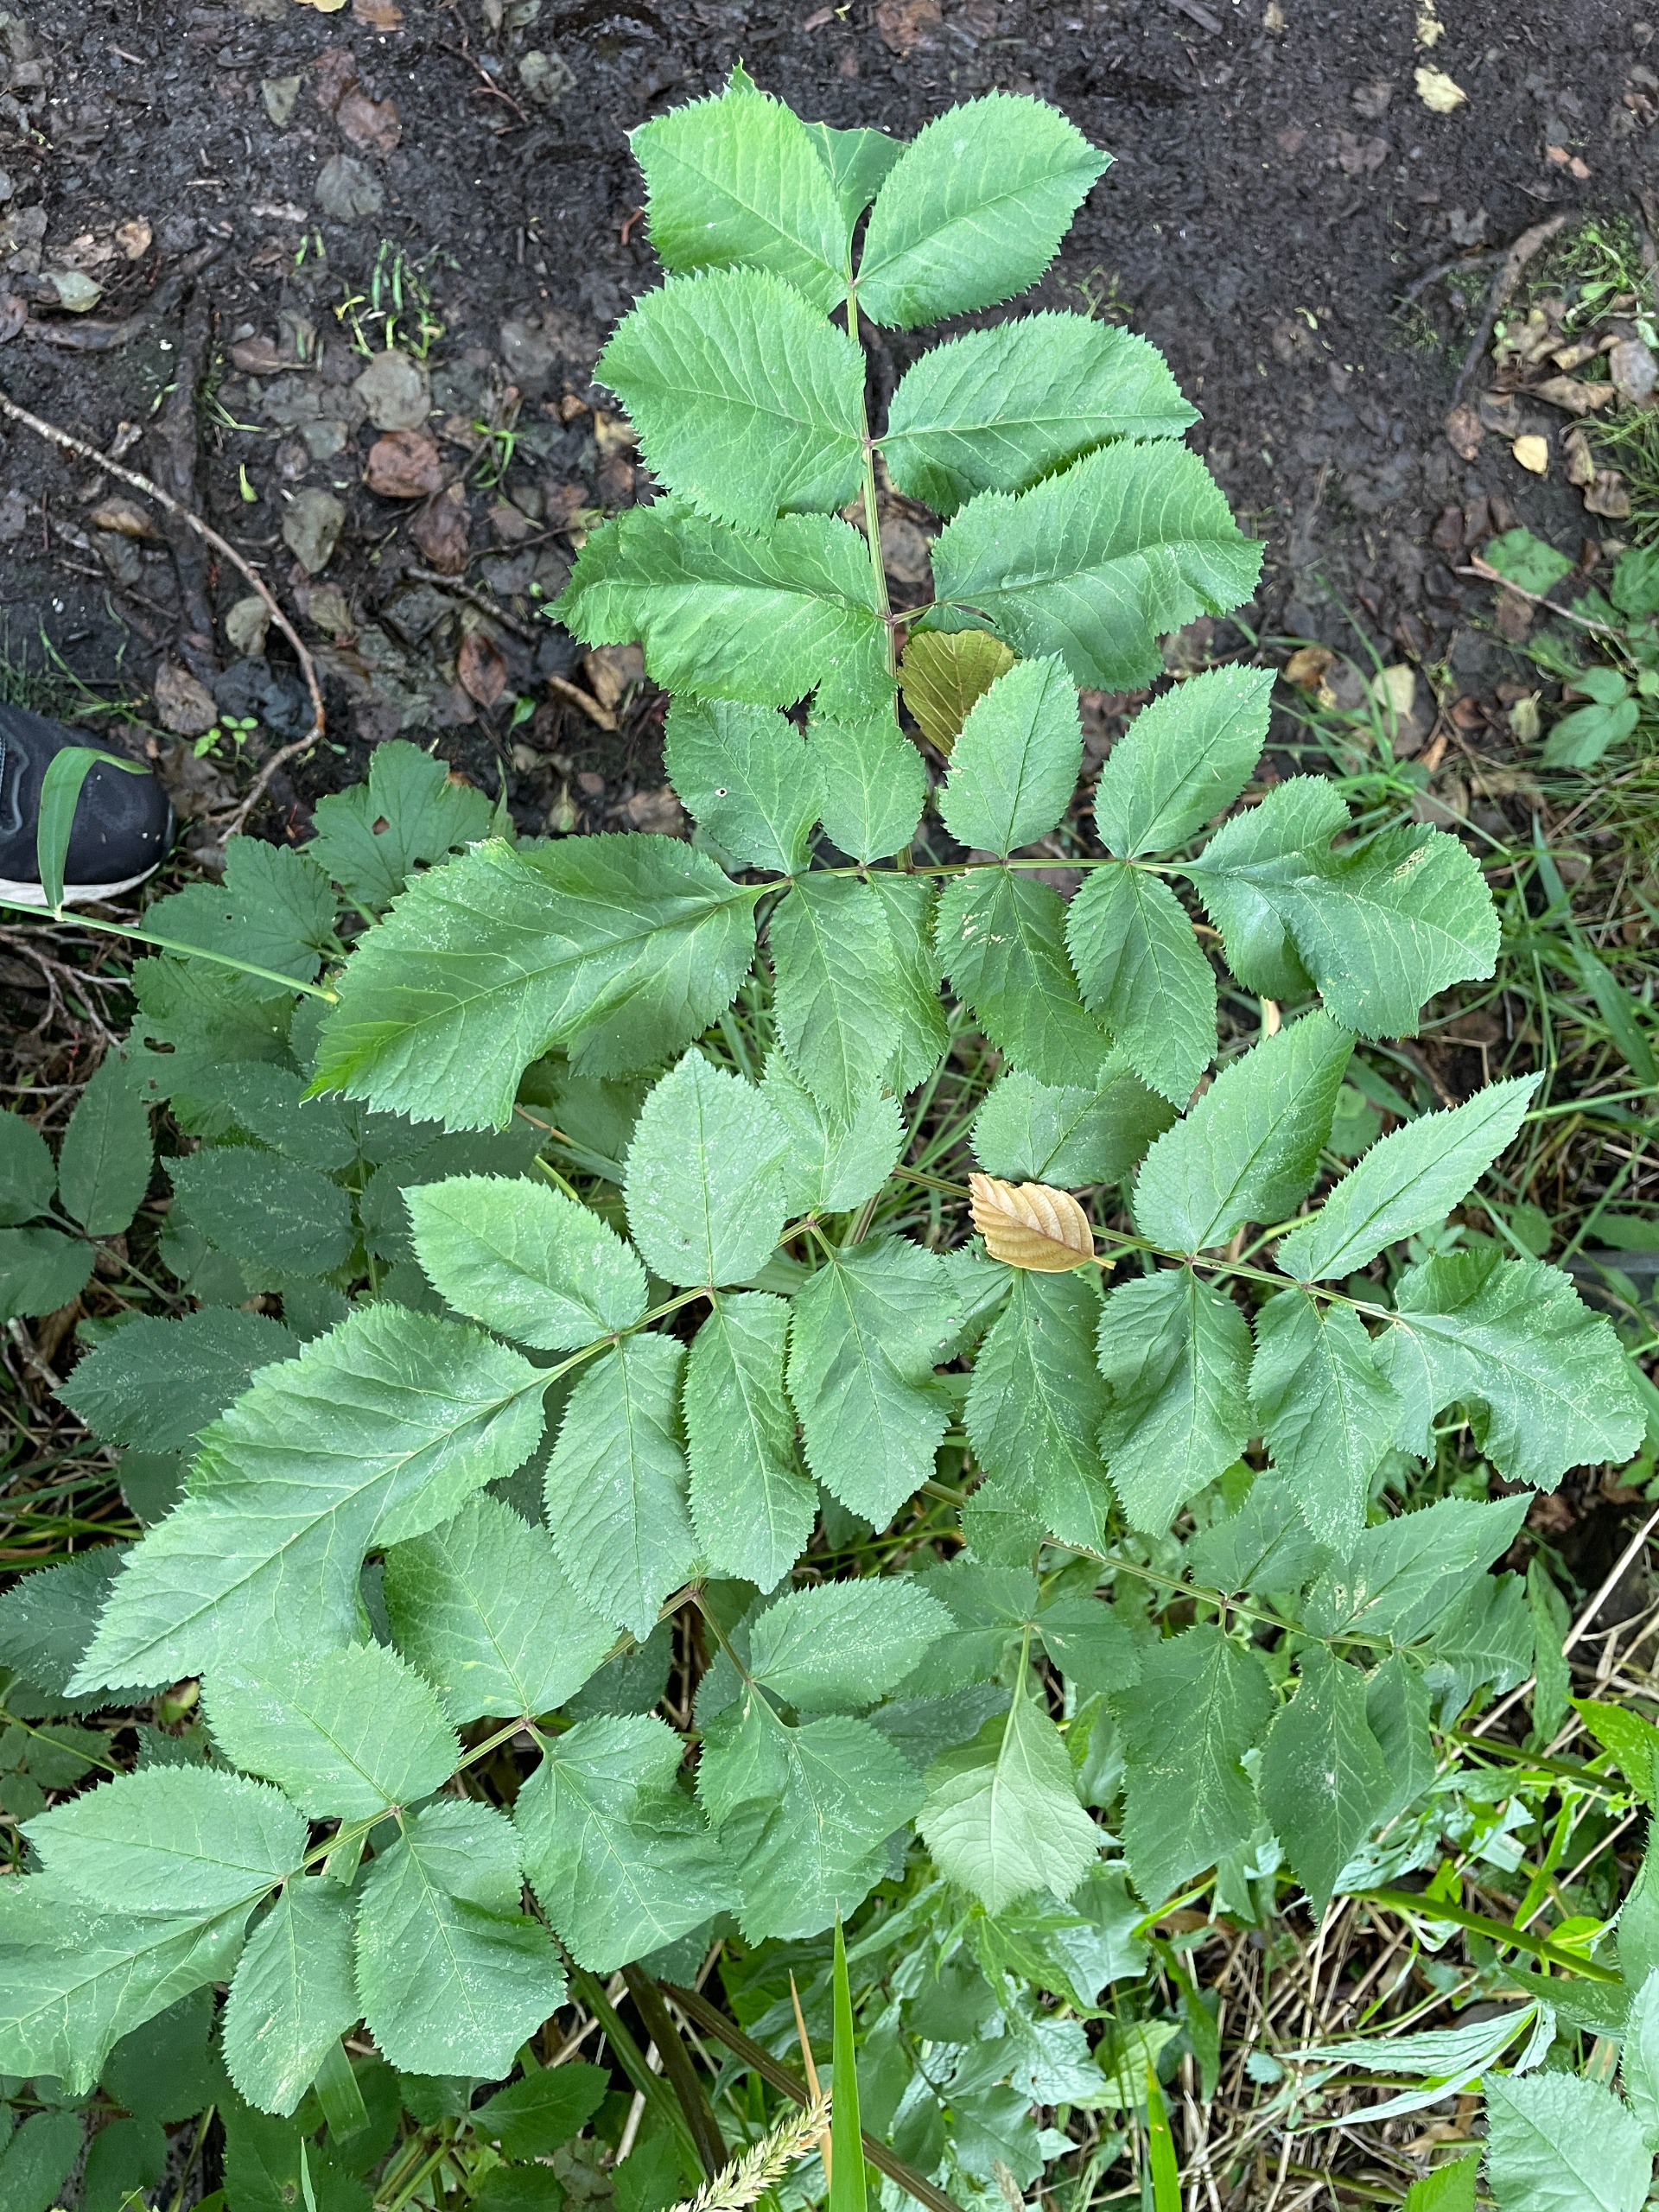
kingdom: Plantae
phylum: Tracheophyta
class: Magnoliopsida
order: Apiales
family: Apiaceae
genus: Angelica
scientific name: Angelica sylvestris
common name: Angelik
